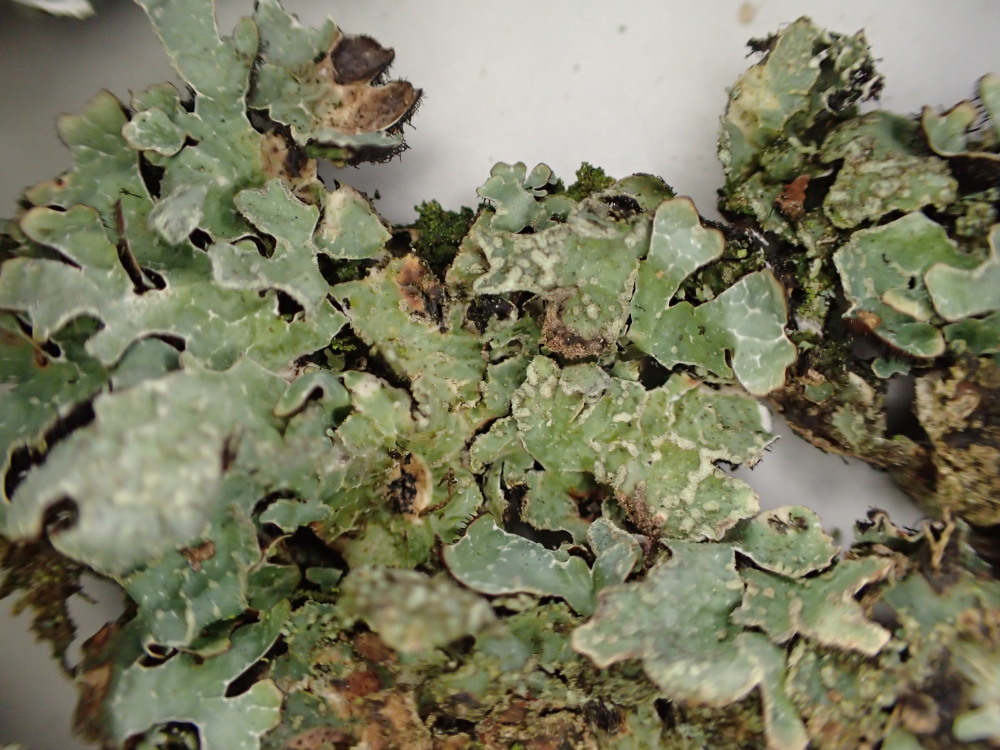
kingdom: Fungi
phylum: Ascomycota
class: Lecanoromycetes
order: Lecanorales
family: Parmeliaceae
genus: Parmelia
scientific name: Parmelia sulcata
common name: rynket skållav
